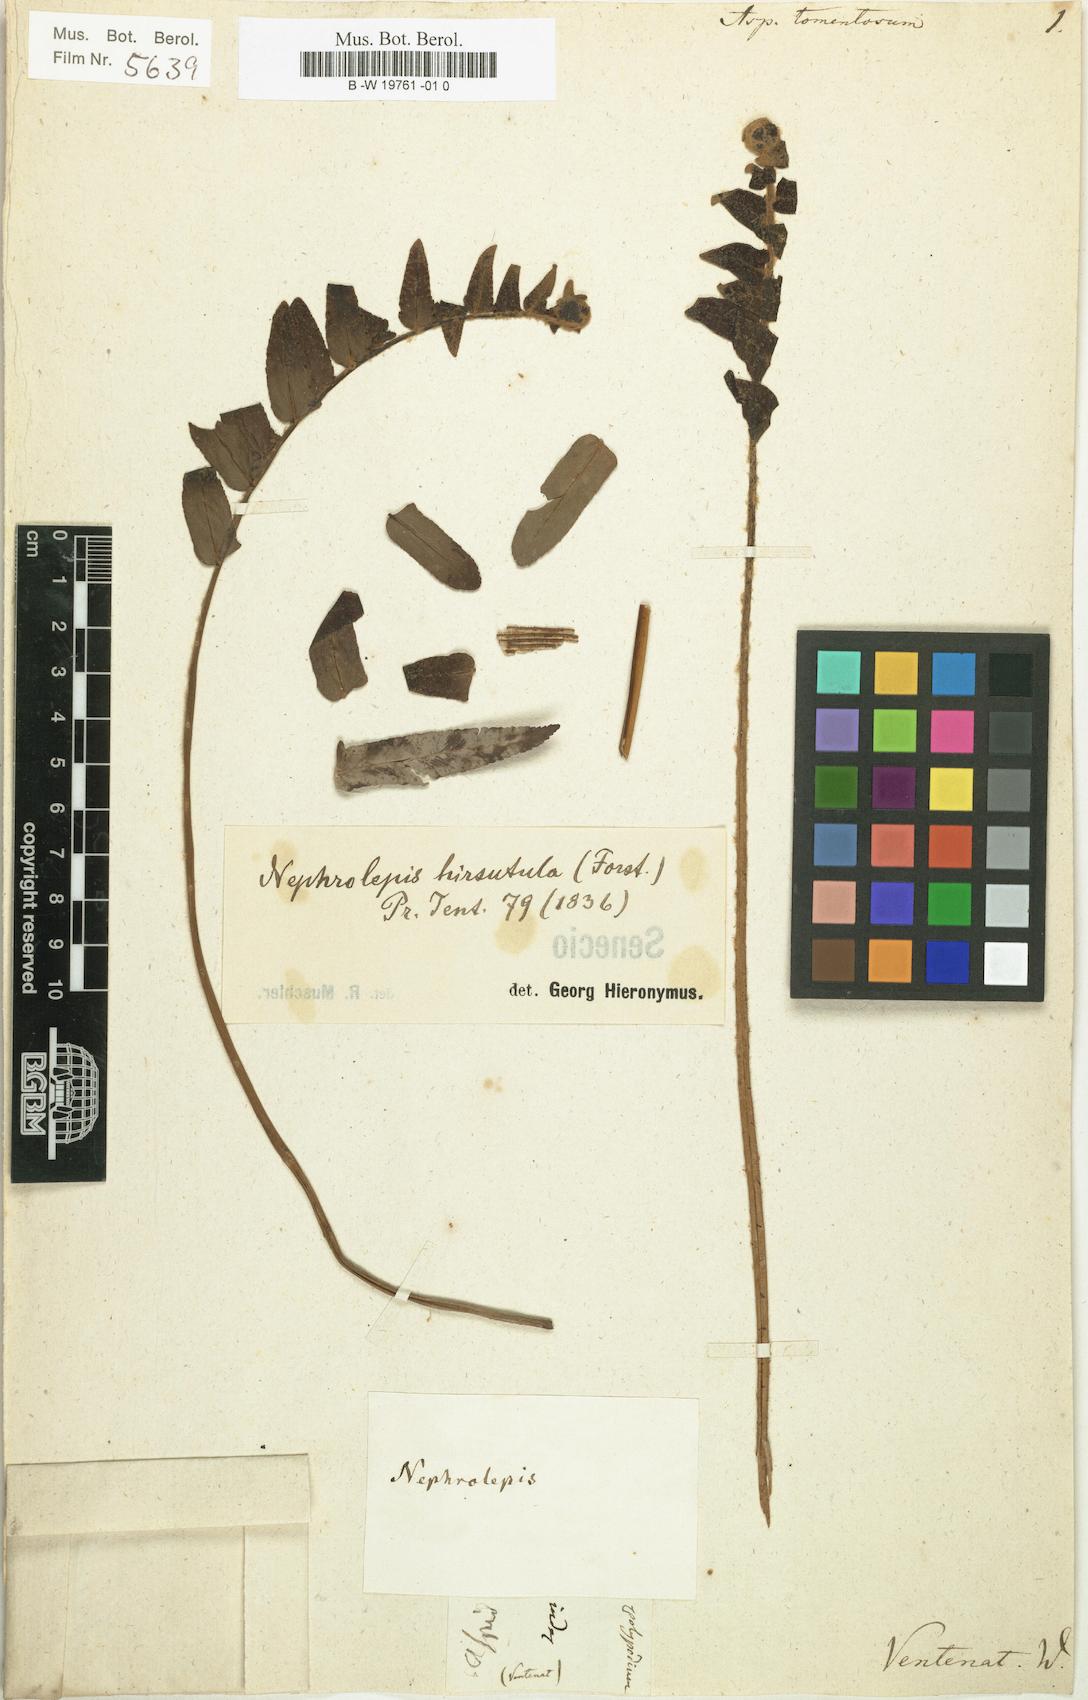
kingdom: Plantae
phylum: Tracheophyta
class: Polypodiopsida
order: Polypodiales
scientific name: Polypodiales
